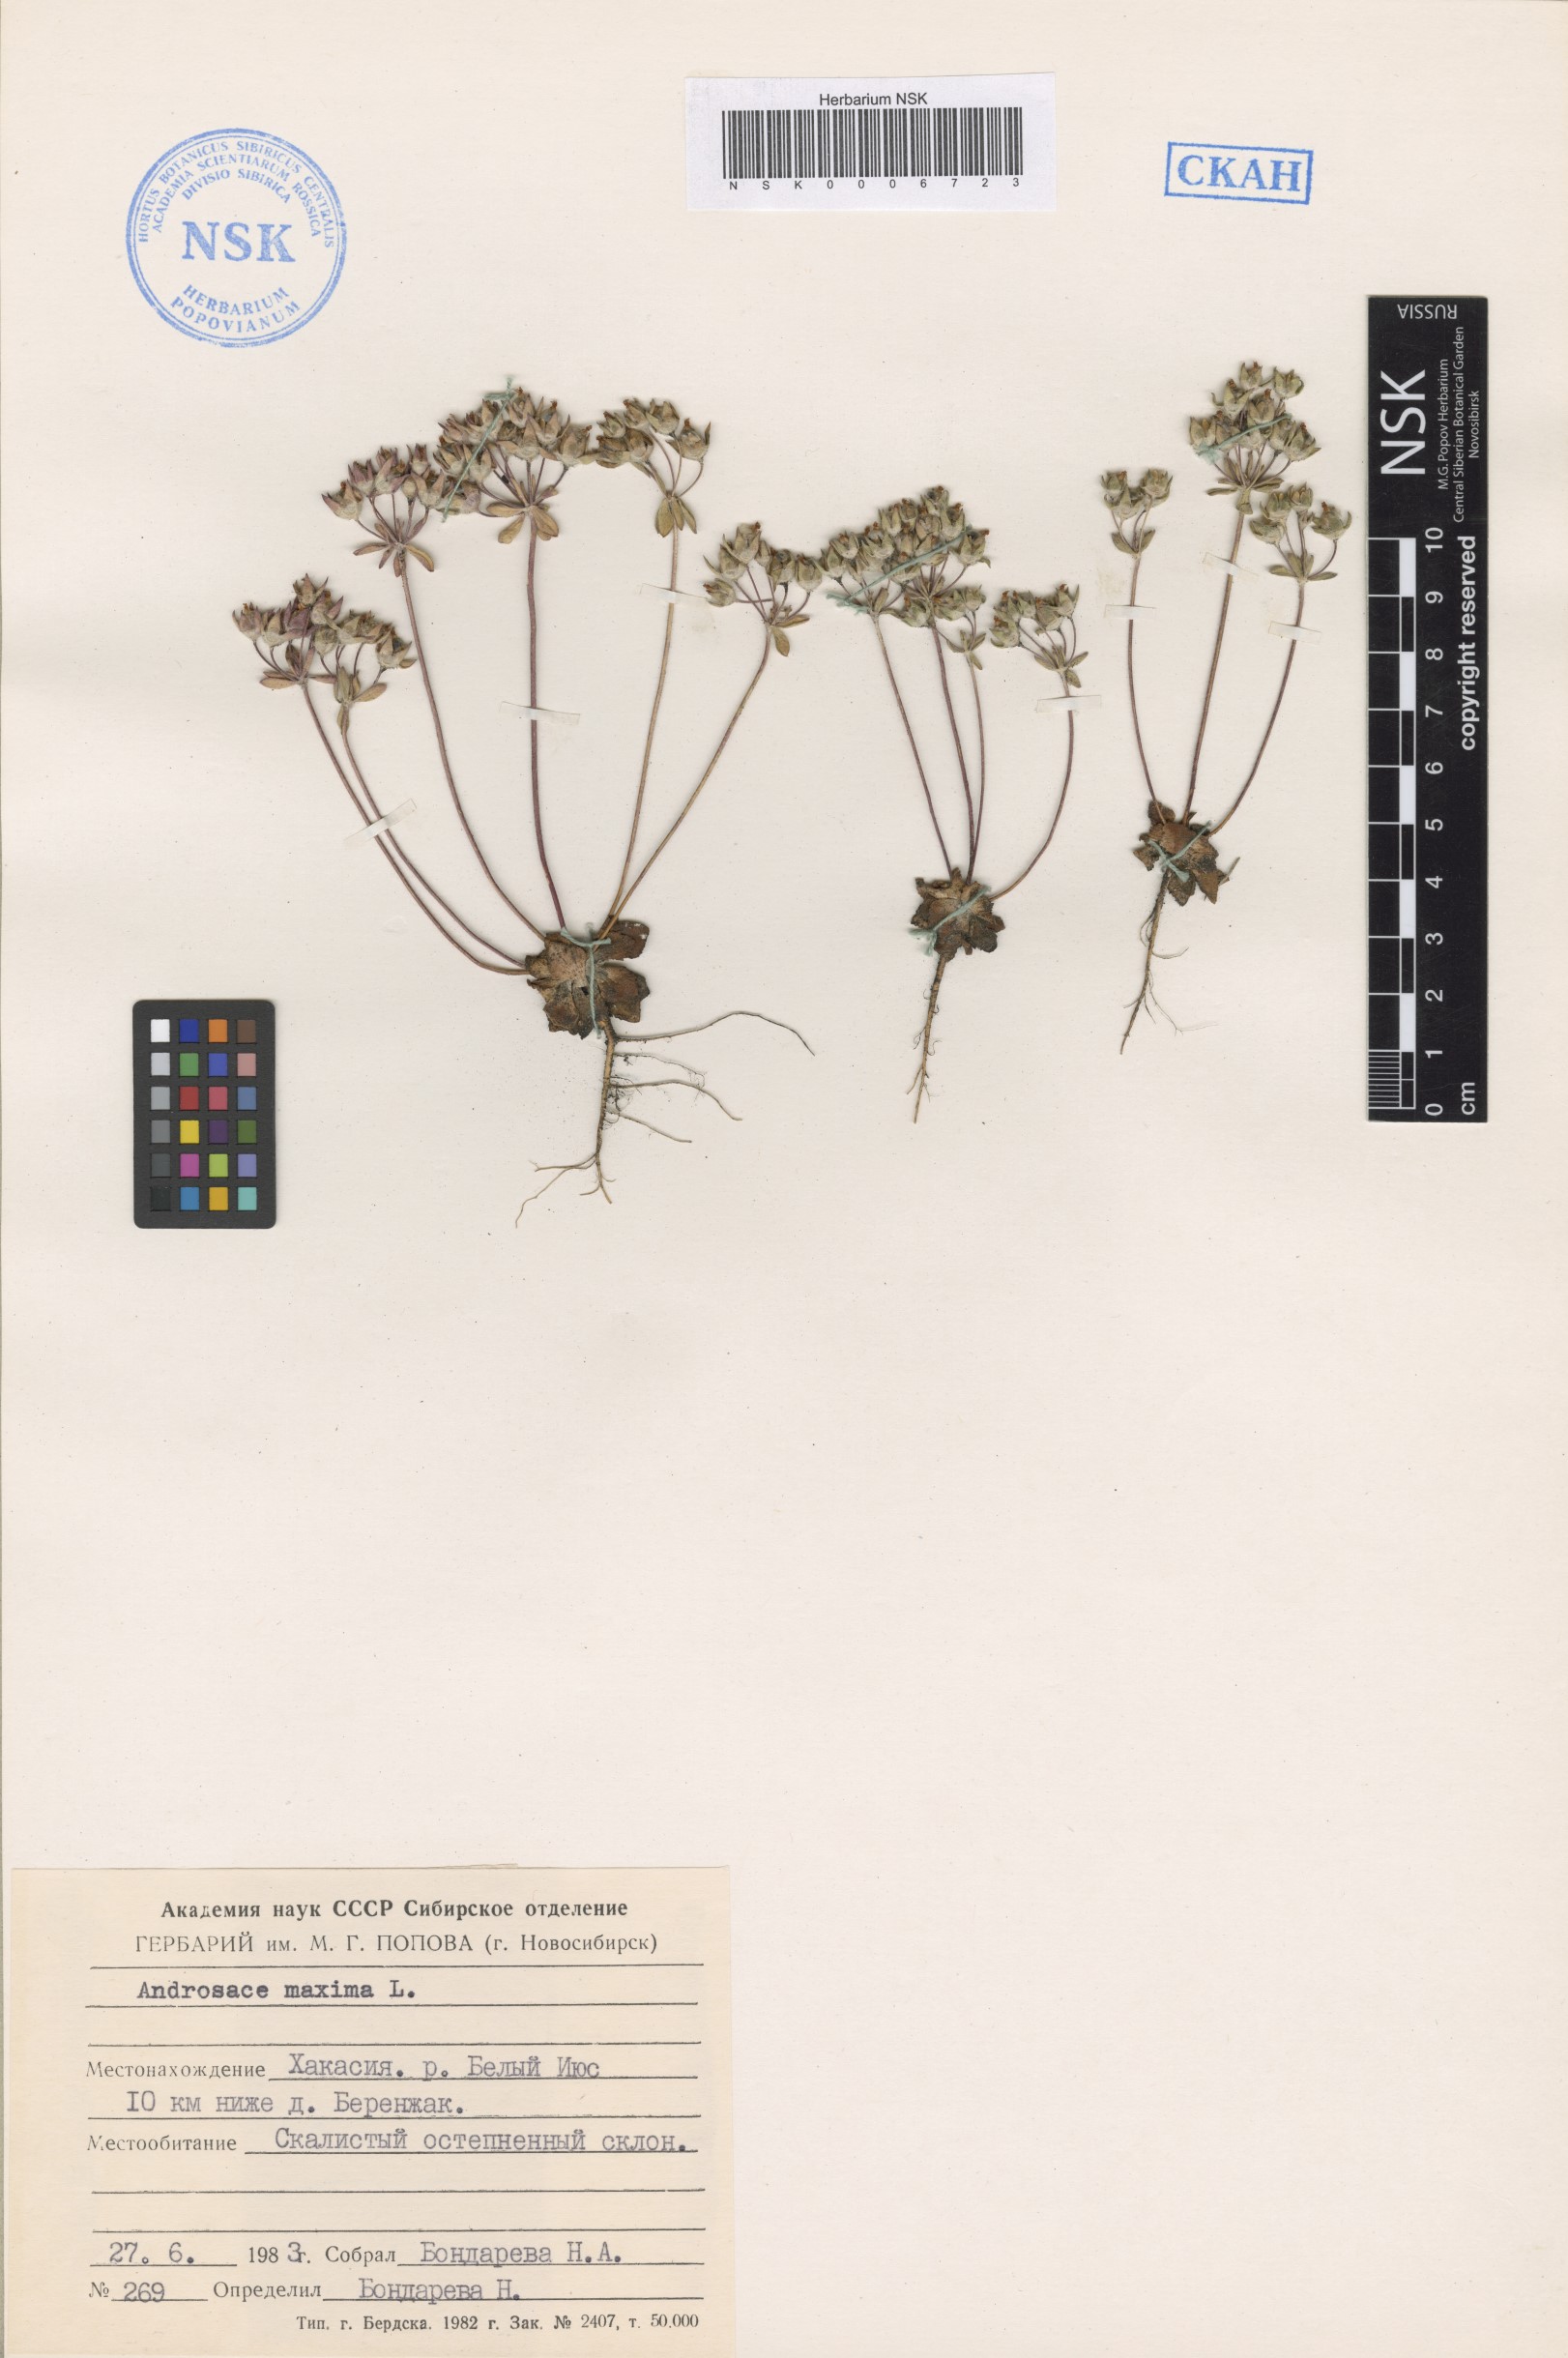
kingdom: Plantae
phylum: Tracheophyta
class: Magnoliopsida
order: Ericales
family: Primulaceae
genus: Androsace
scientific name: Androsace maxima
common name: Annual androsace
